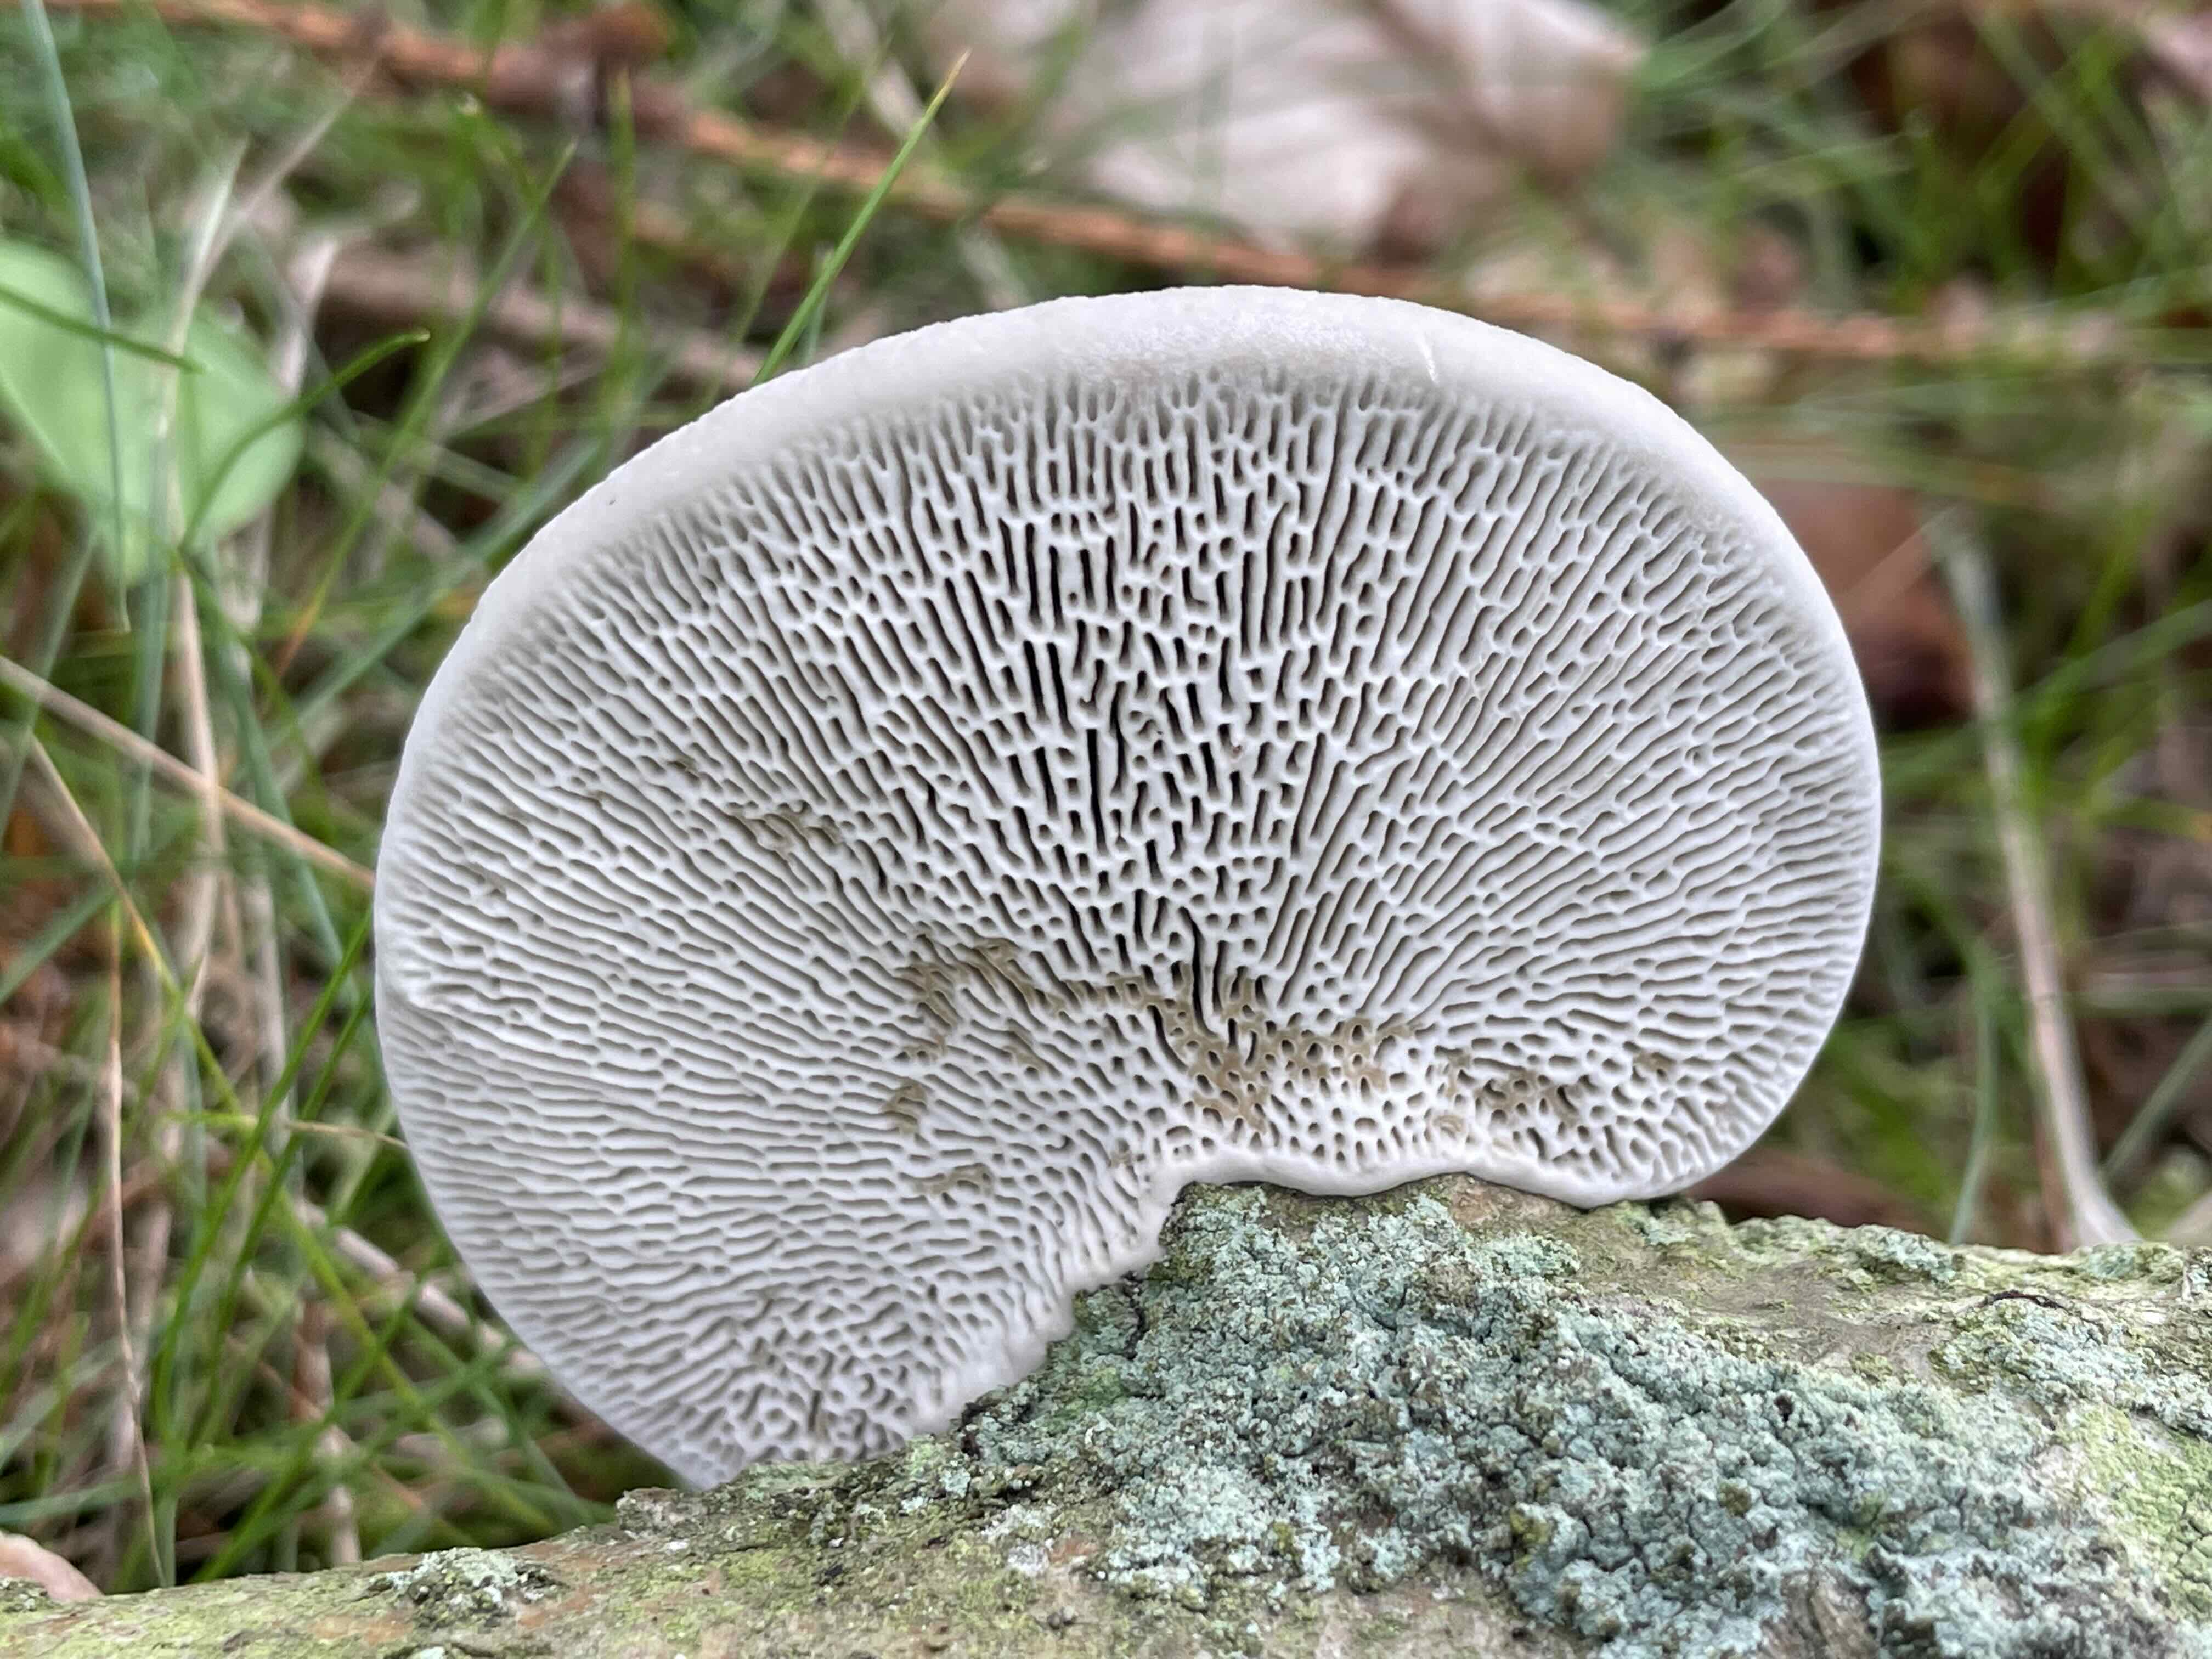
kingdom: Fungi
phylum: Basidiomycota
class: Agaricomycetes
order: Polyporales
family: Polyporaceae
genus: Daedaleopsis
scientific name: Daedaleopsis confragosa
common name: rødmende læderporesvamp
